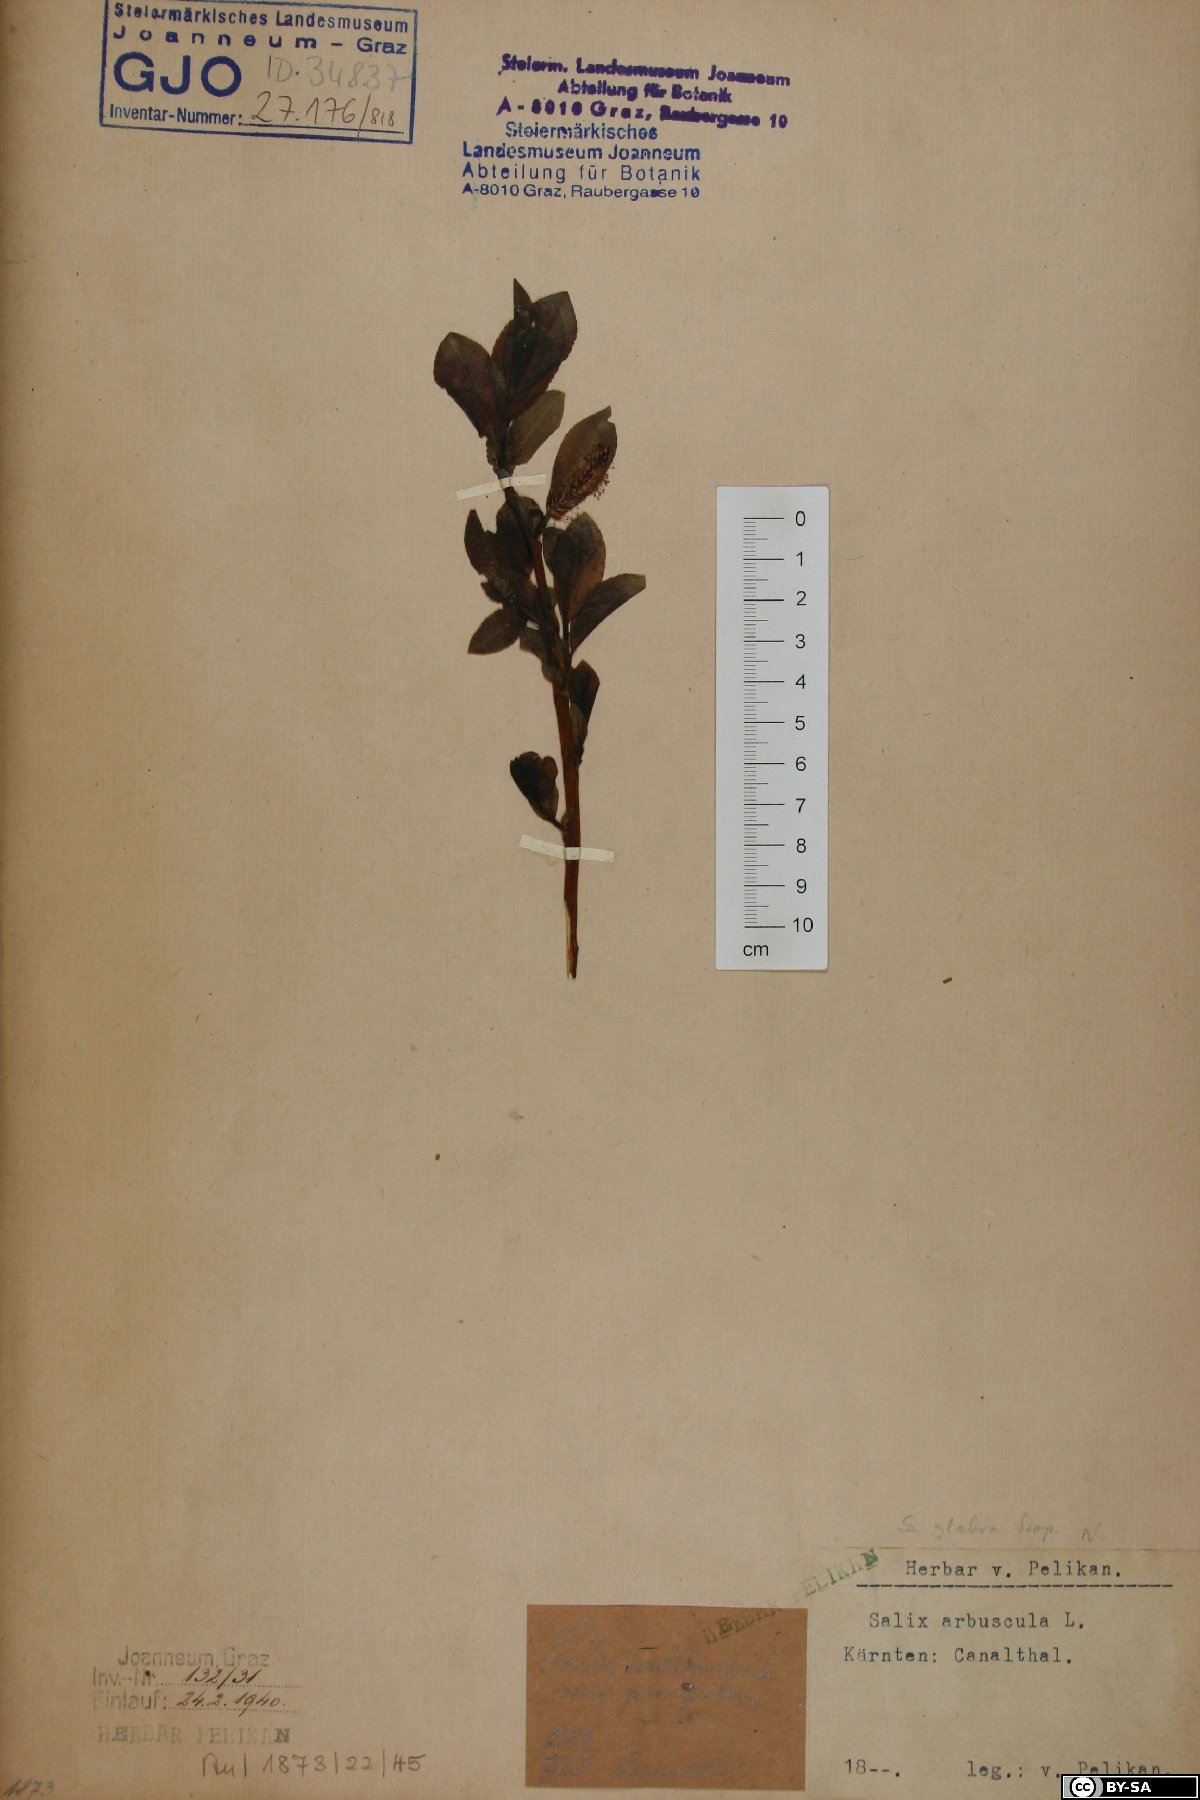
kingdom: Plantae
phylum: Tracheophyta
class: Magnoliopsida
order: Malpighiales
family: Salicaceae
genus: Salix
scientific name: Salix glabra
